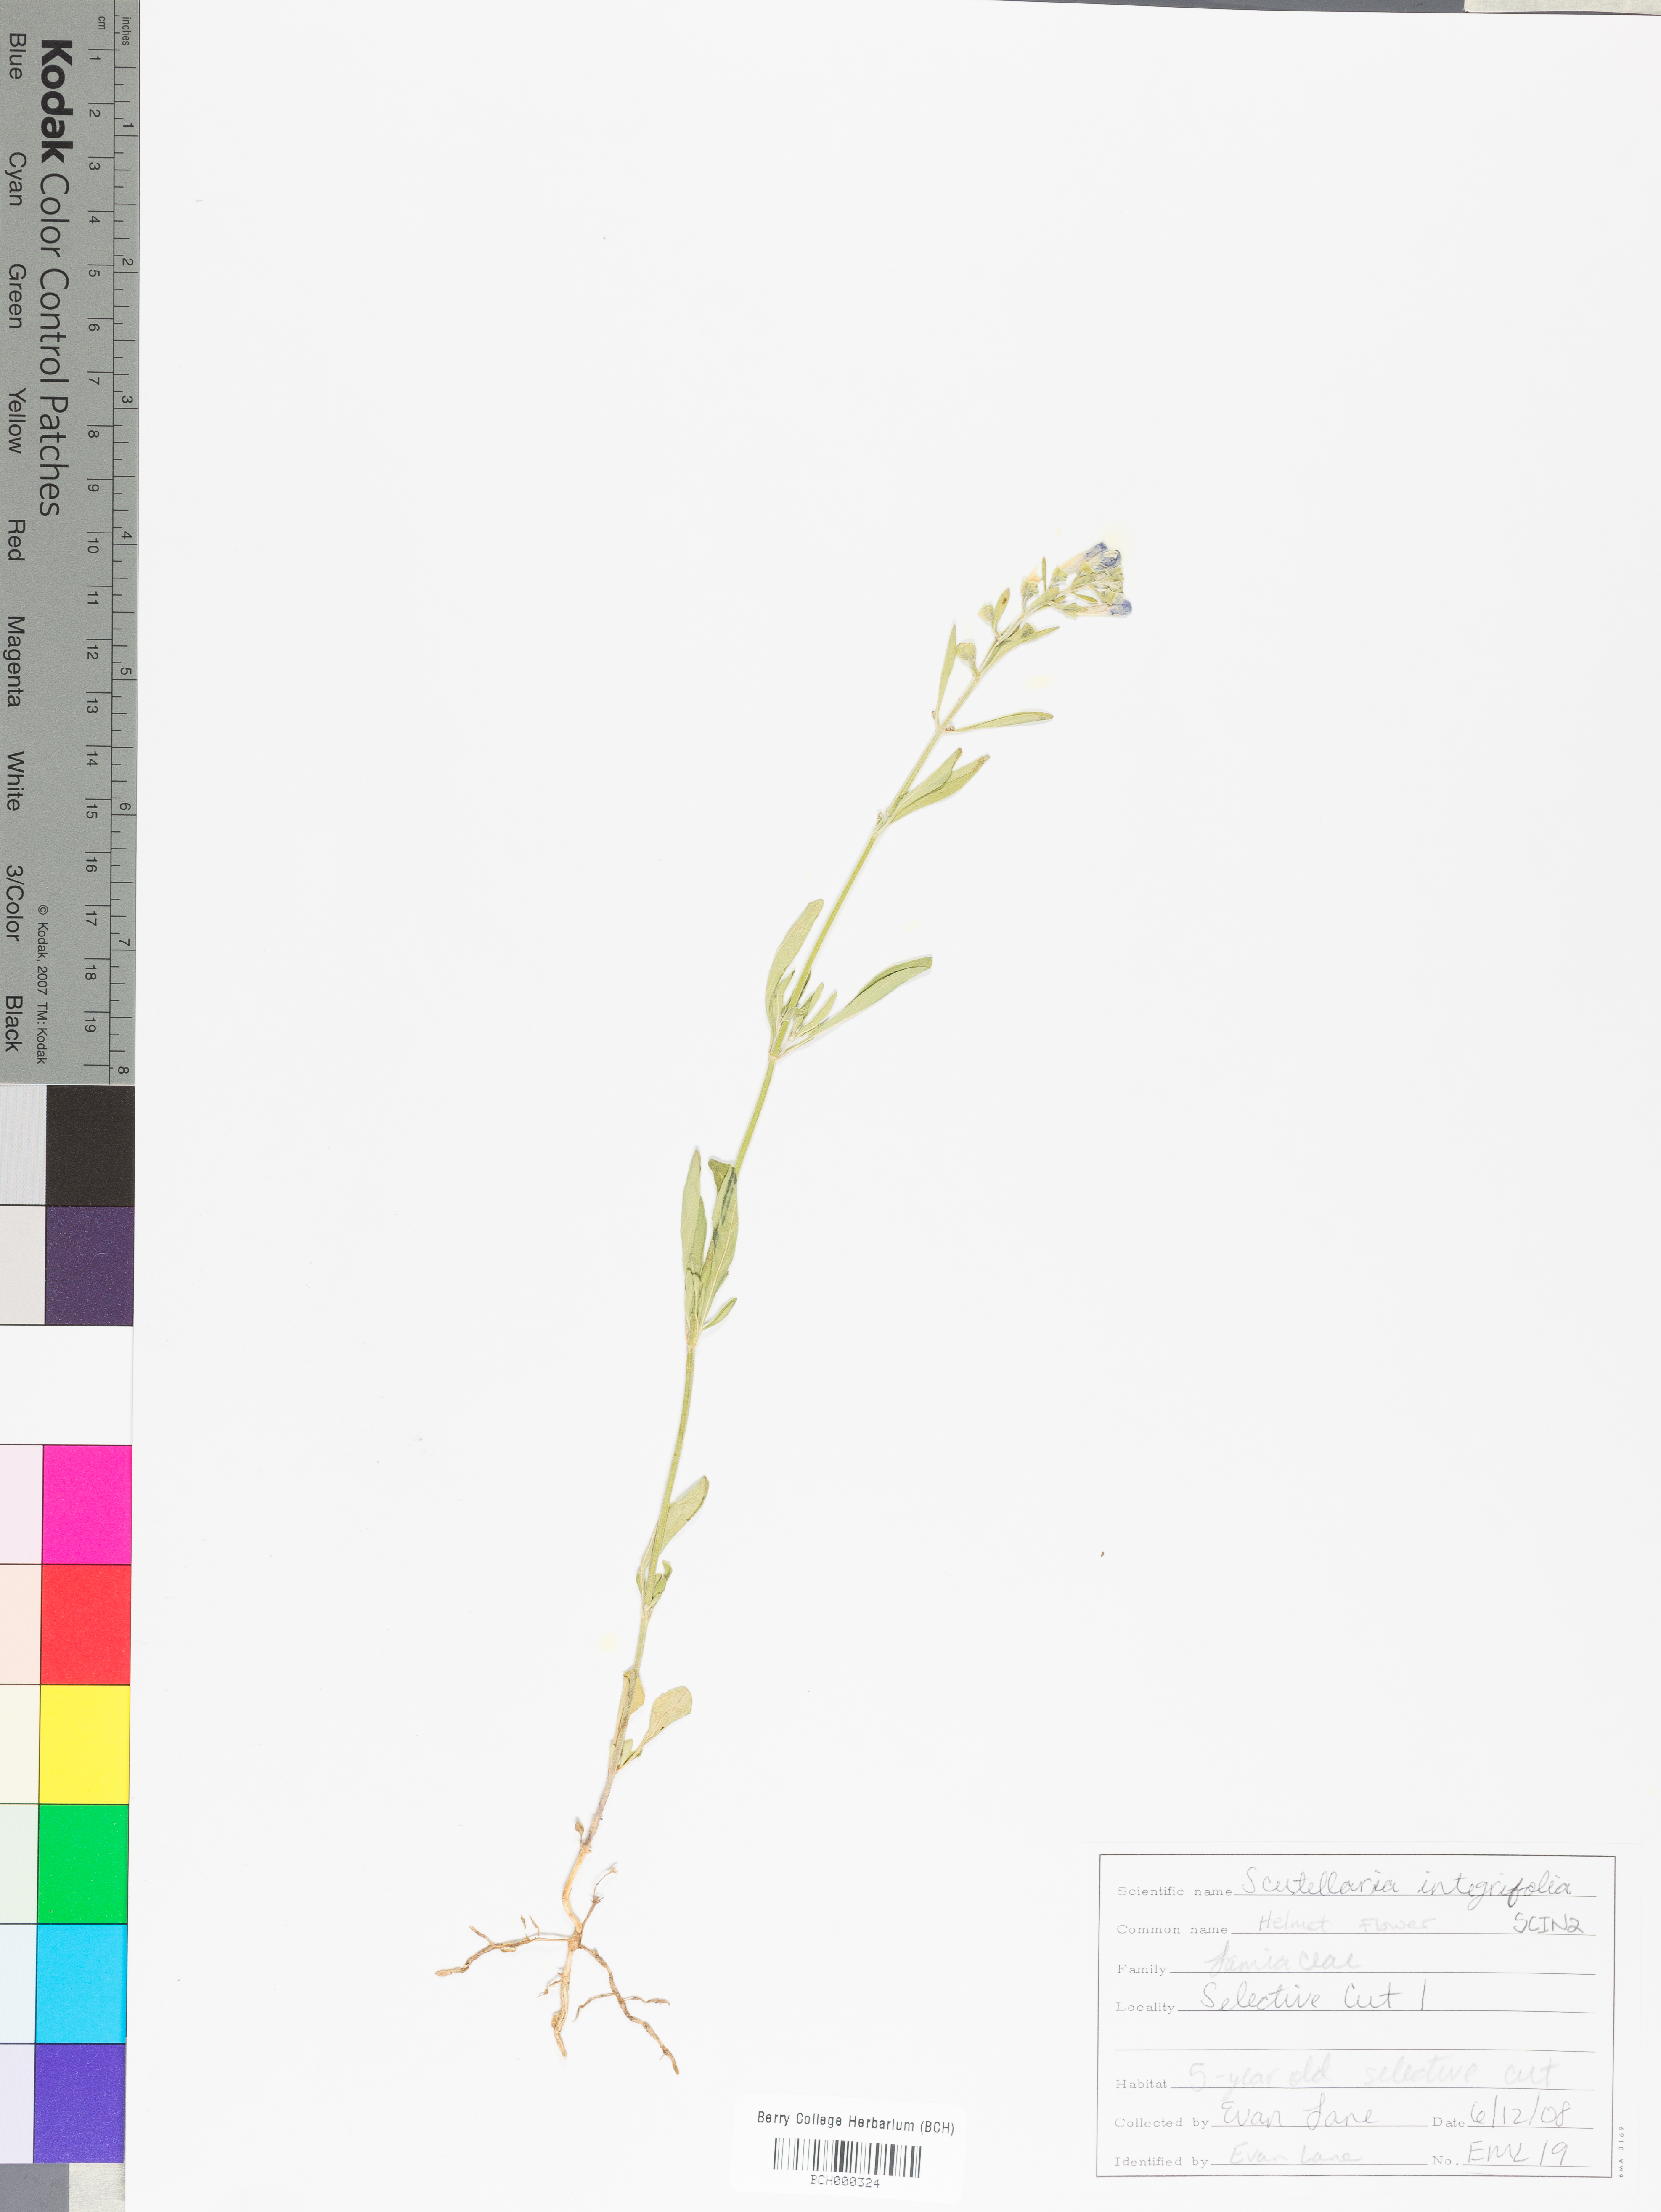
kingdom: Plantae
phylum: Tracheophyta
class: Magnoliopsida
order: Lamiales
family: Lamiaceae
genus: Scutellaria
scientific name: Scutellaria integrifolia
